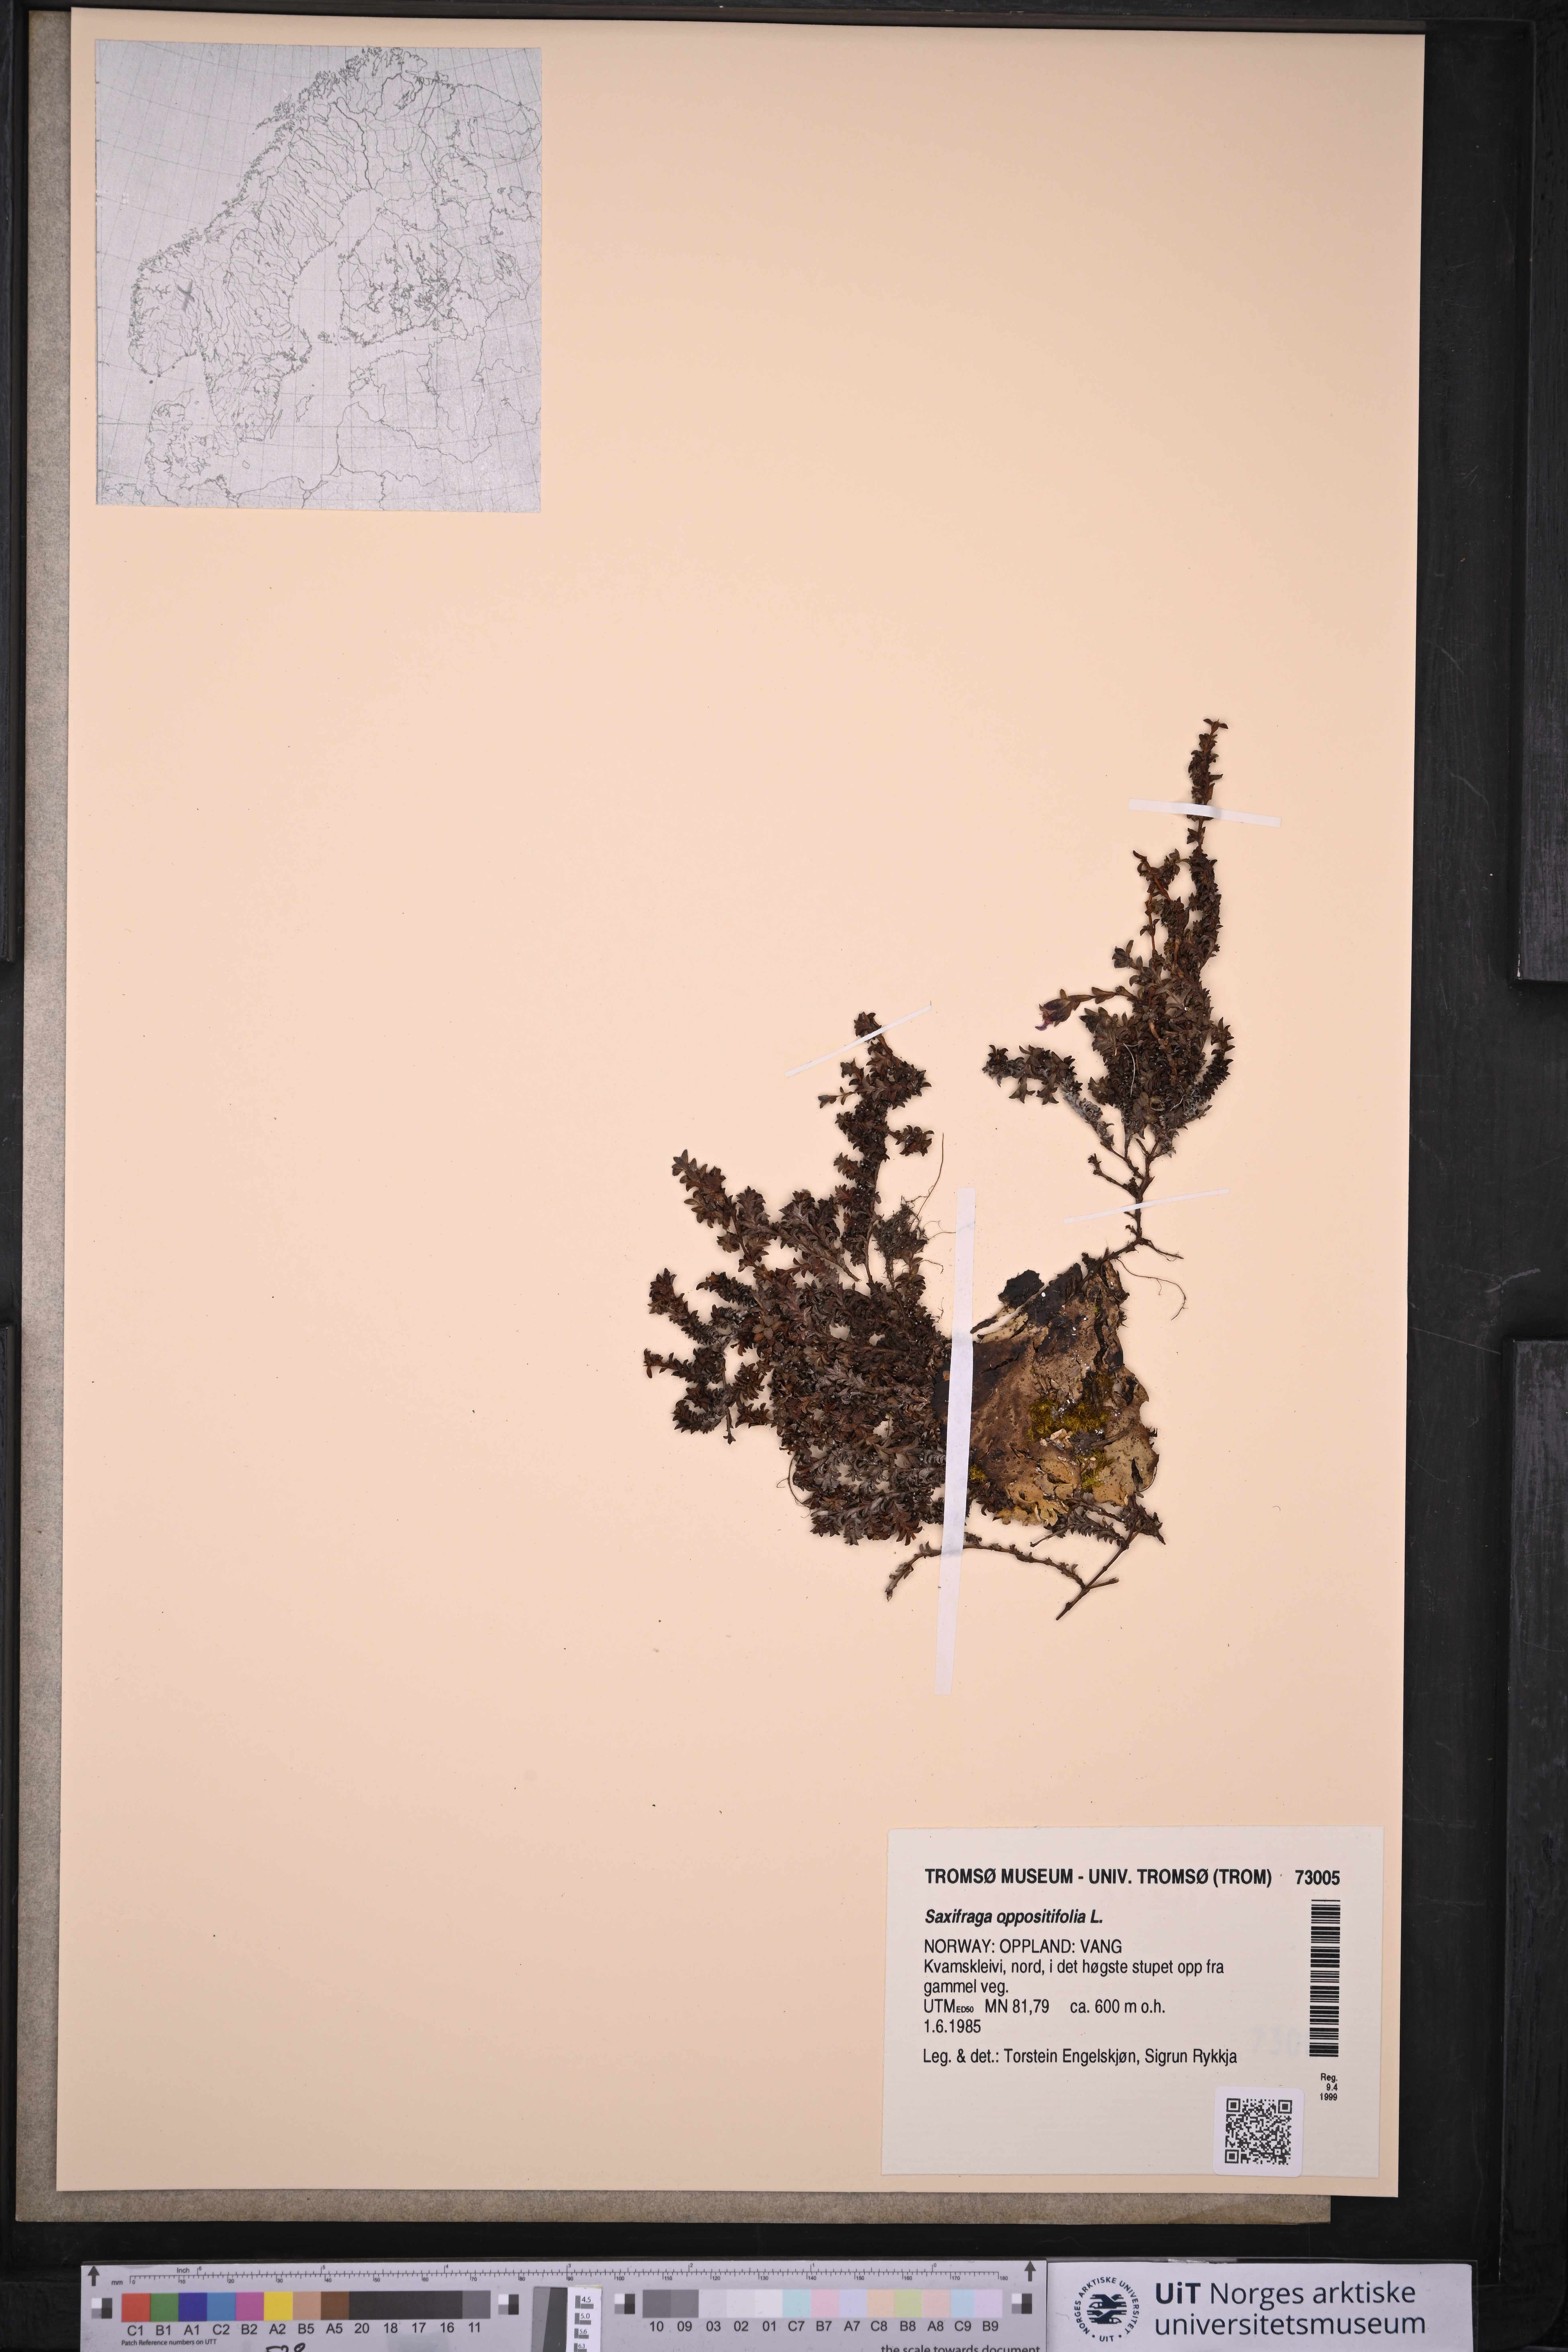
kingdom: Plantae
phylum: Tracheophyta
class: Magnoliopsida
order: Saxifragales
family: Saxifragaceae
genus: Saxifraga
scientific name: Saxifraga oppositifolia
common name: Purple saxifrage
